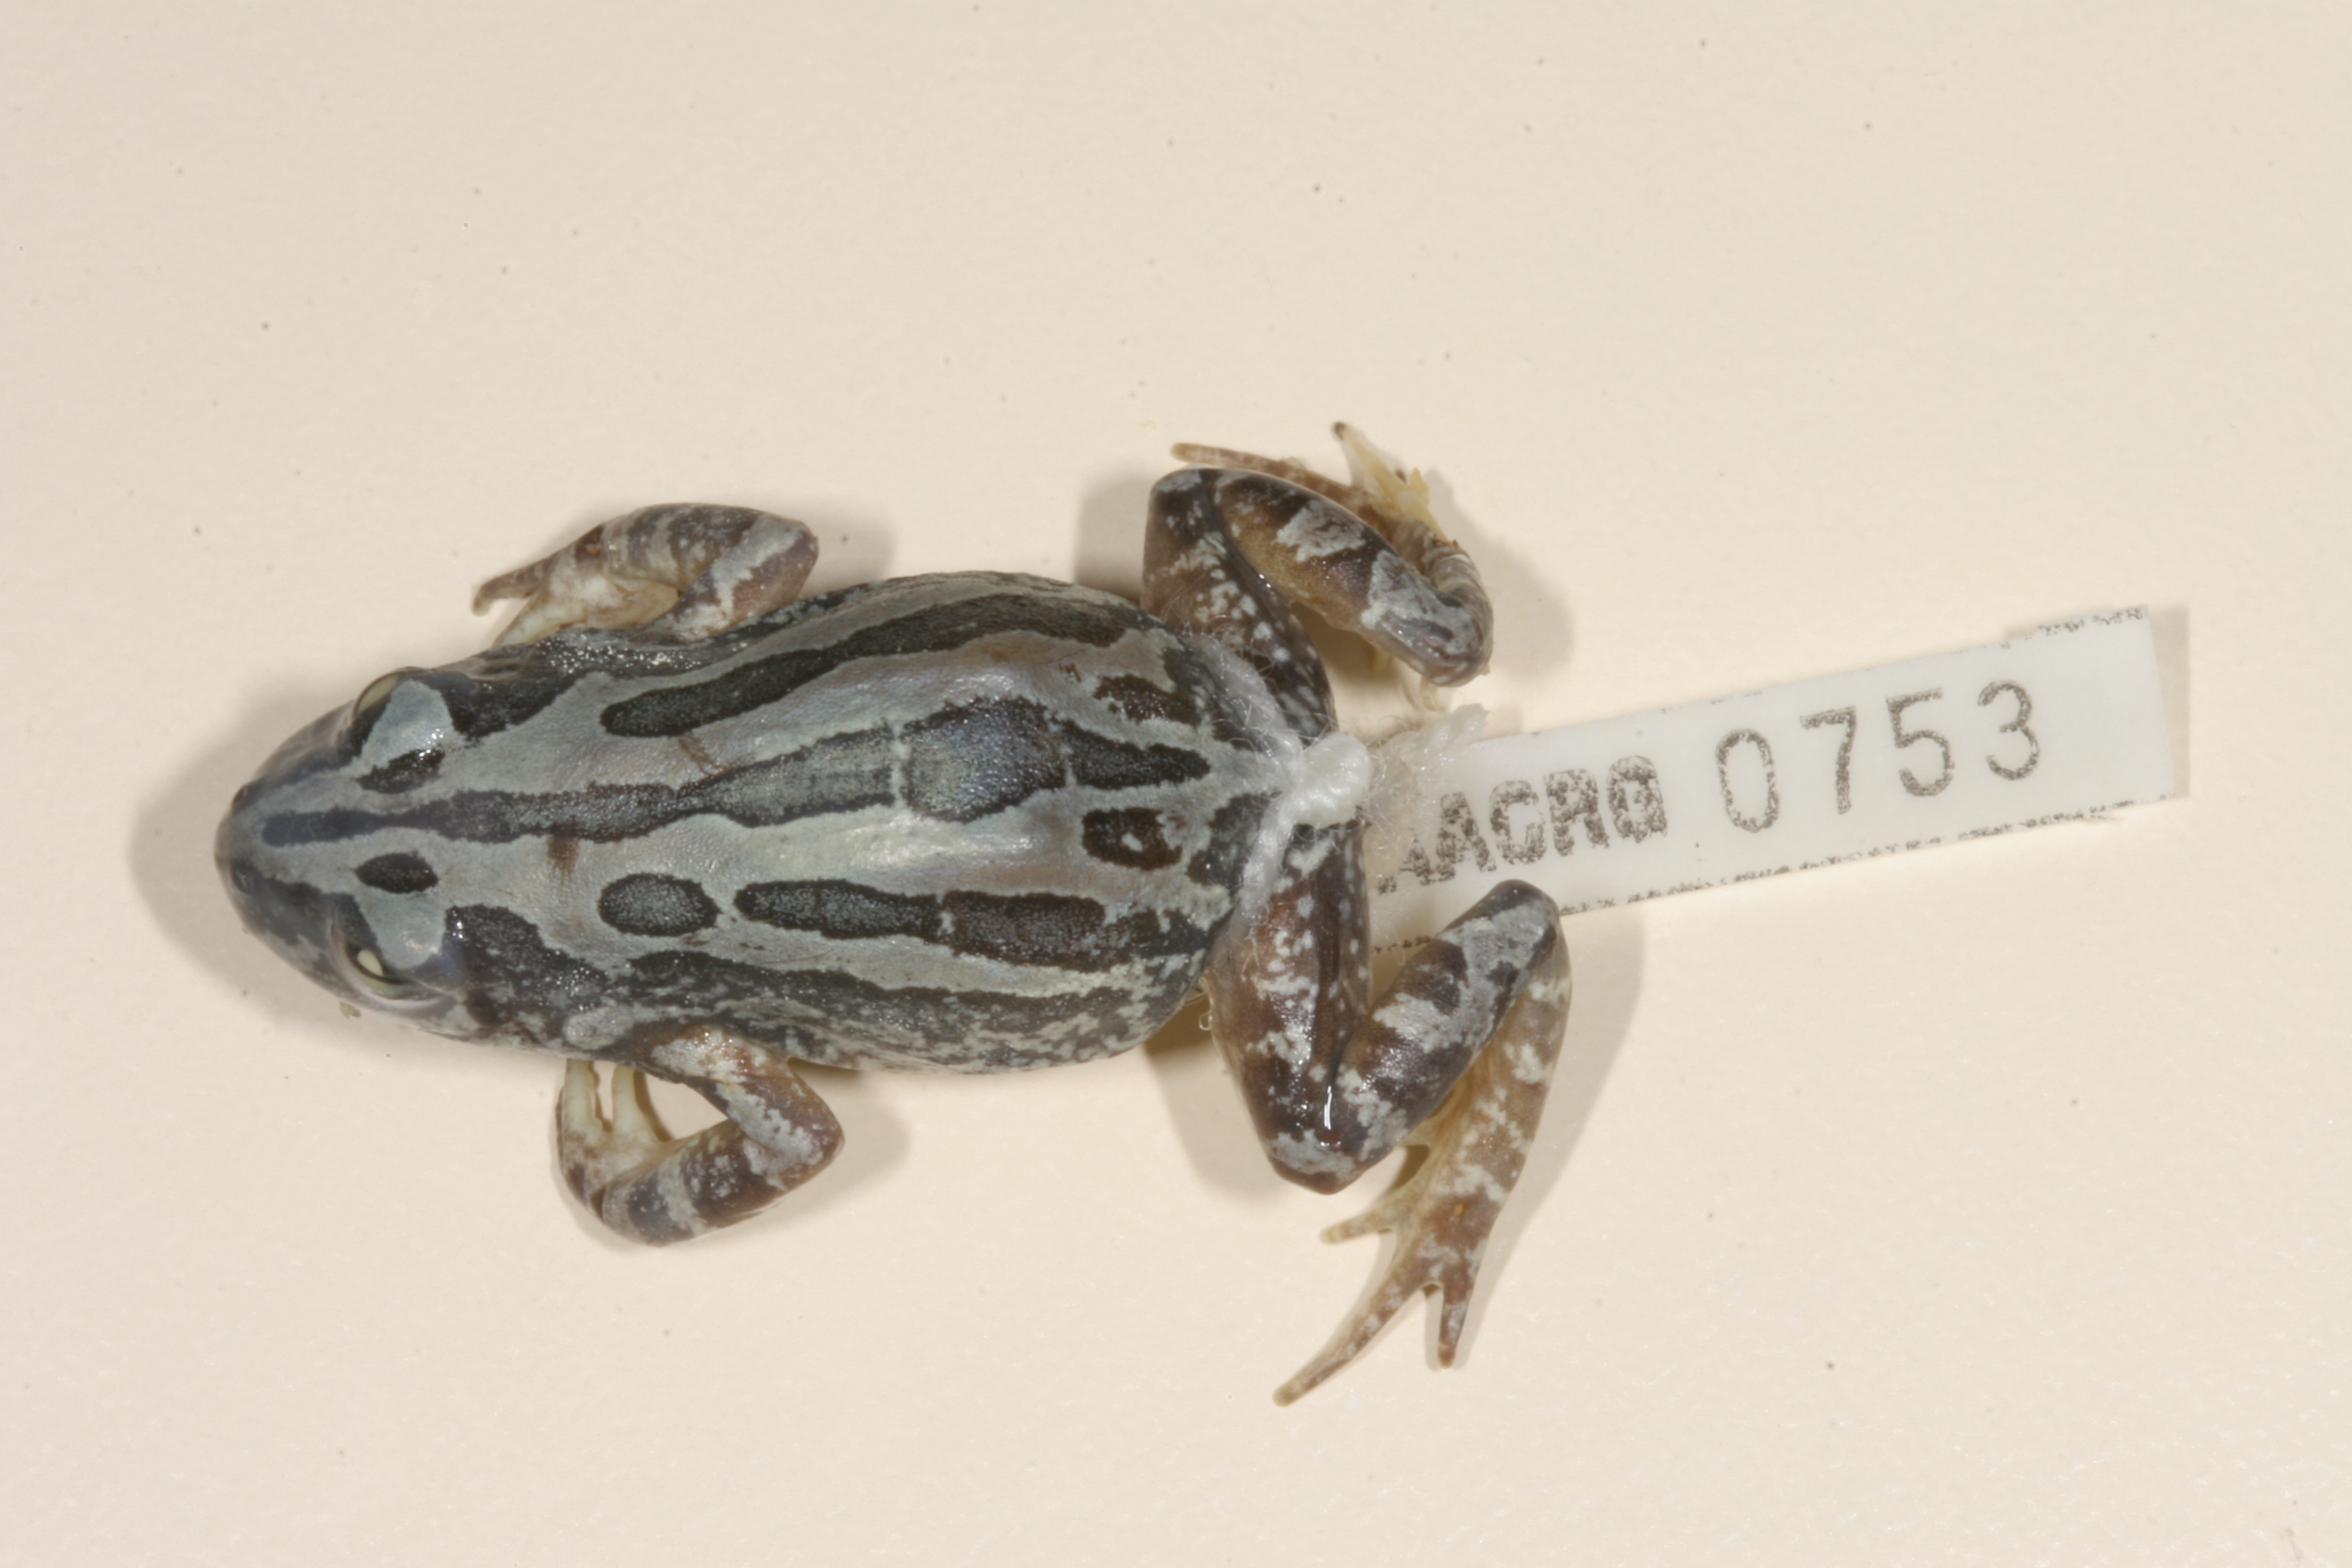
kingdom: Animalia
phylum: Chordata
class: Amphibia
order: Anura
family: Hyperoliidae
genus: Kassina
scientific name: Kassina senegalensis
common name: Senegal land frog
